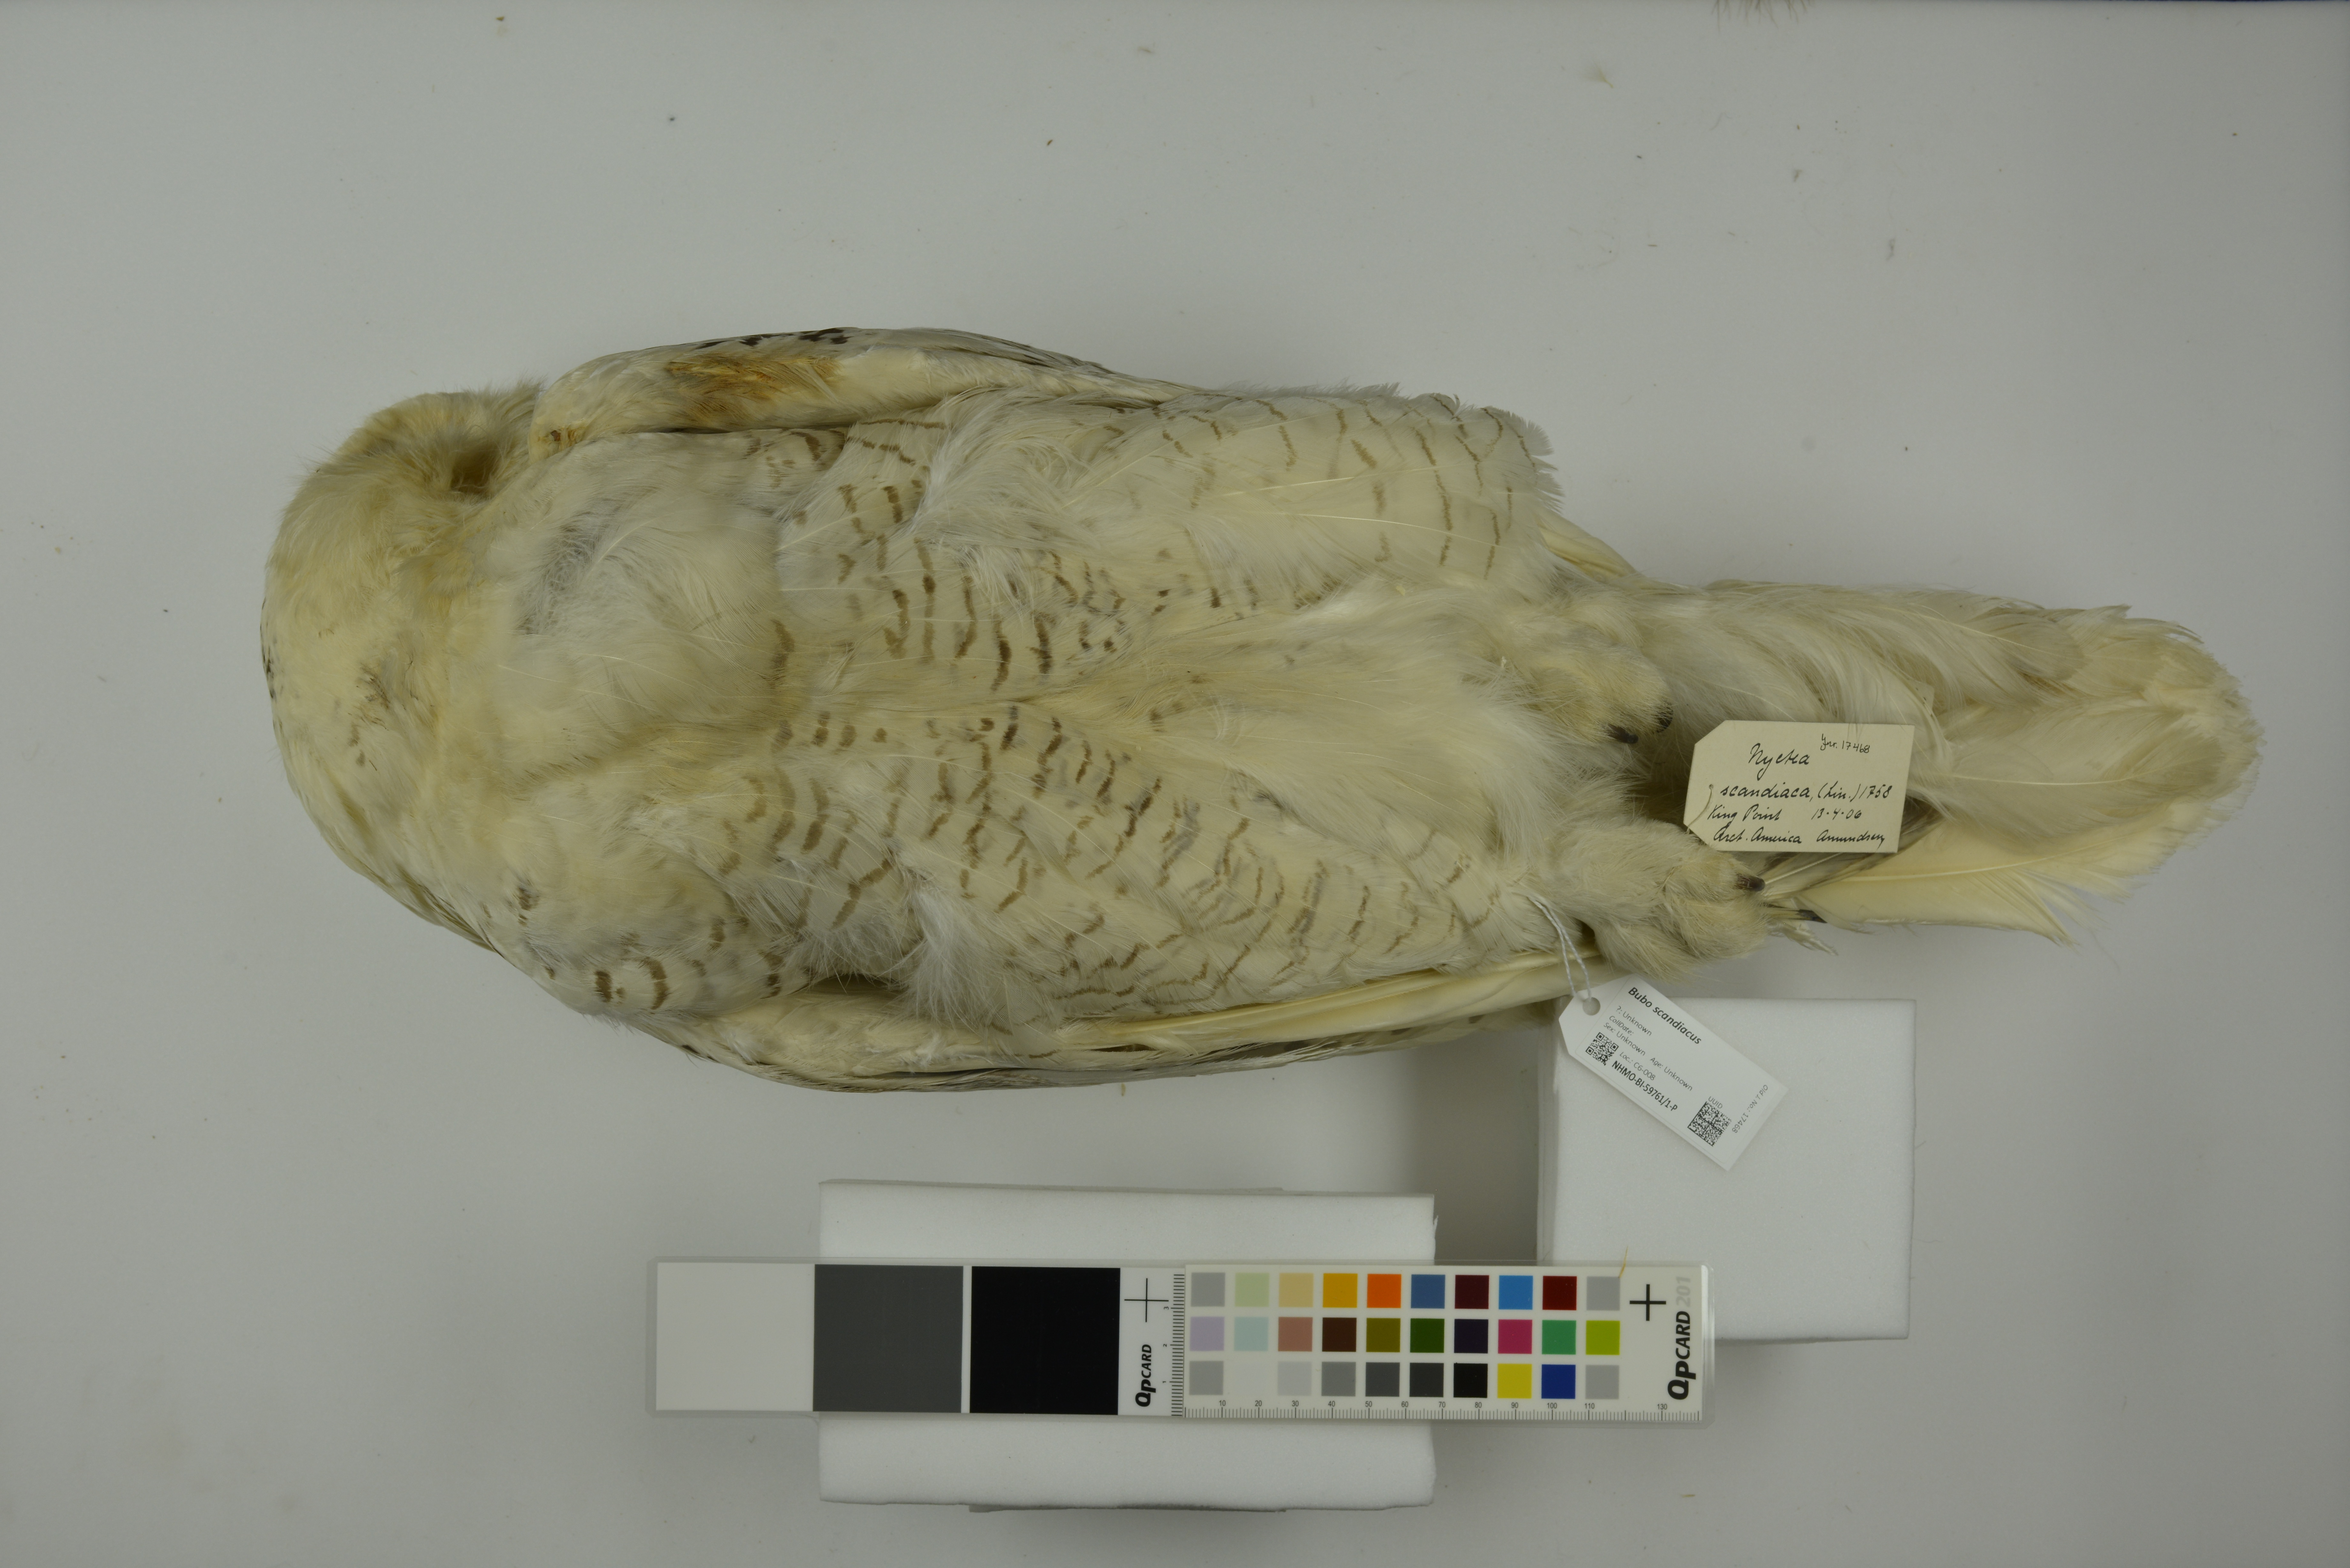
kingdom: Animalia
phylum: Chordata
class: Aves
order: Strigiformes
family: Strigidae
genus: Bubo
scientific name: Bubo scandiacus
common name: Snowy owl
